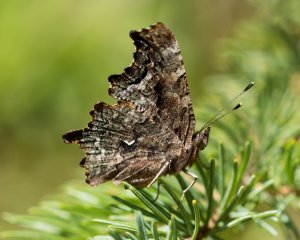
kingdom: Animalia
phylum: Arthropoda
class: Insecta
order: Lepidoptera
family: Nymphalidae
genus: Polygonia
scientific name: Polygonia faunus
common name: Green Comma
